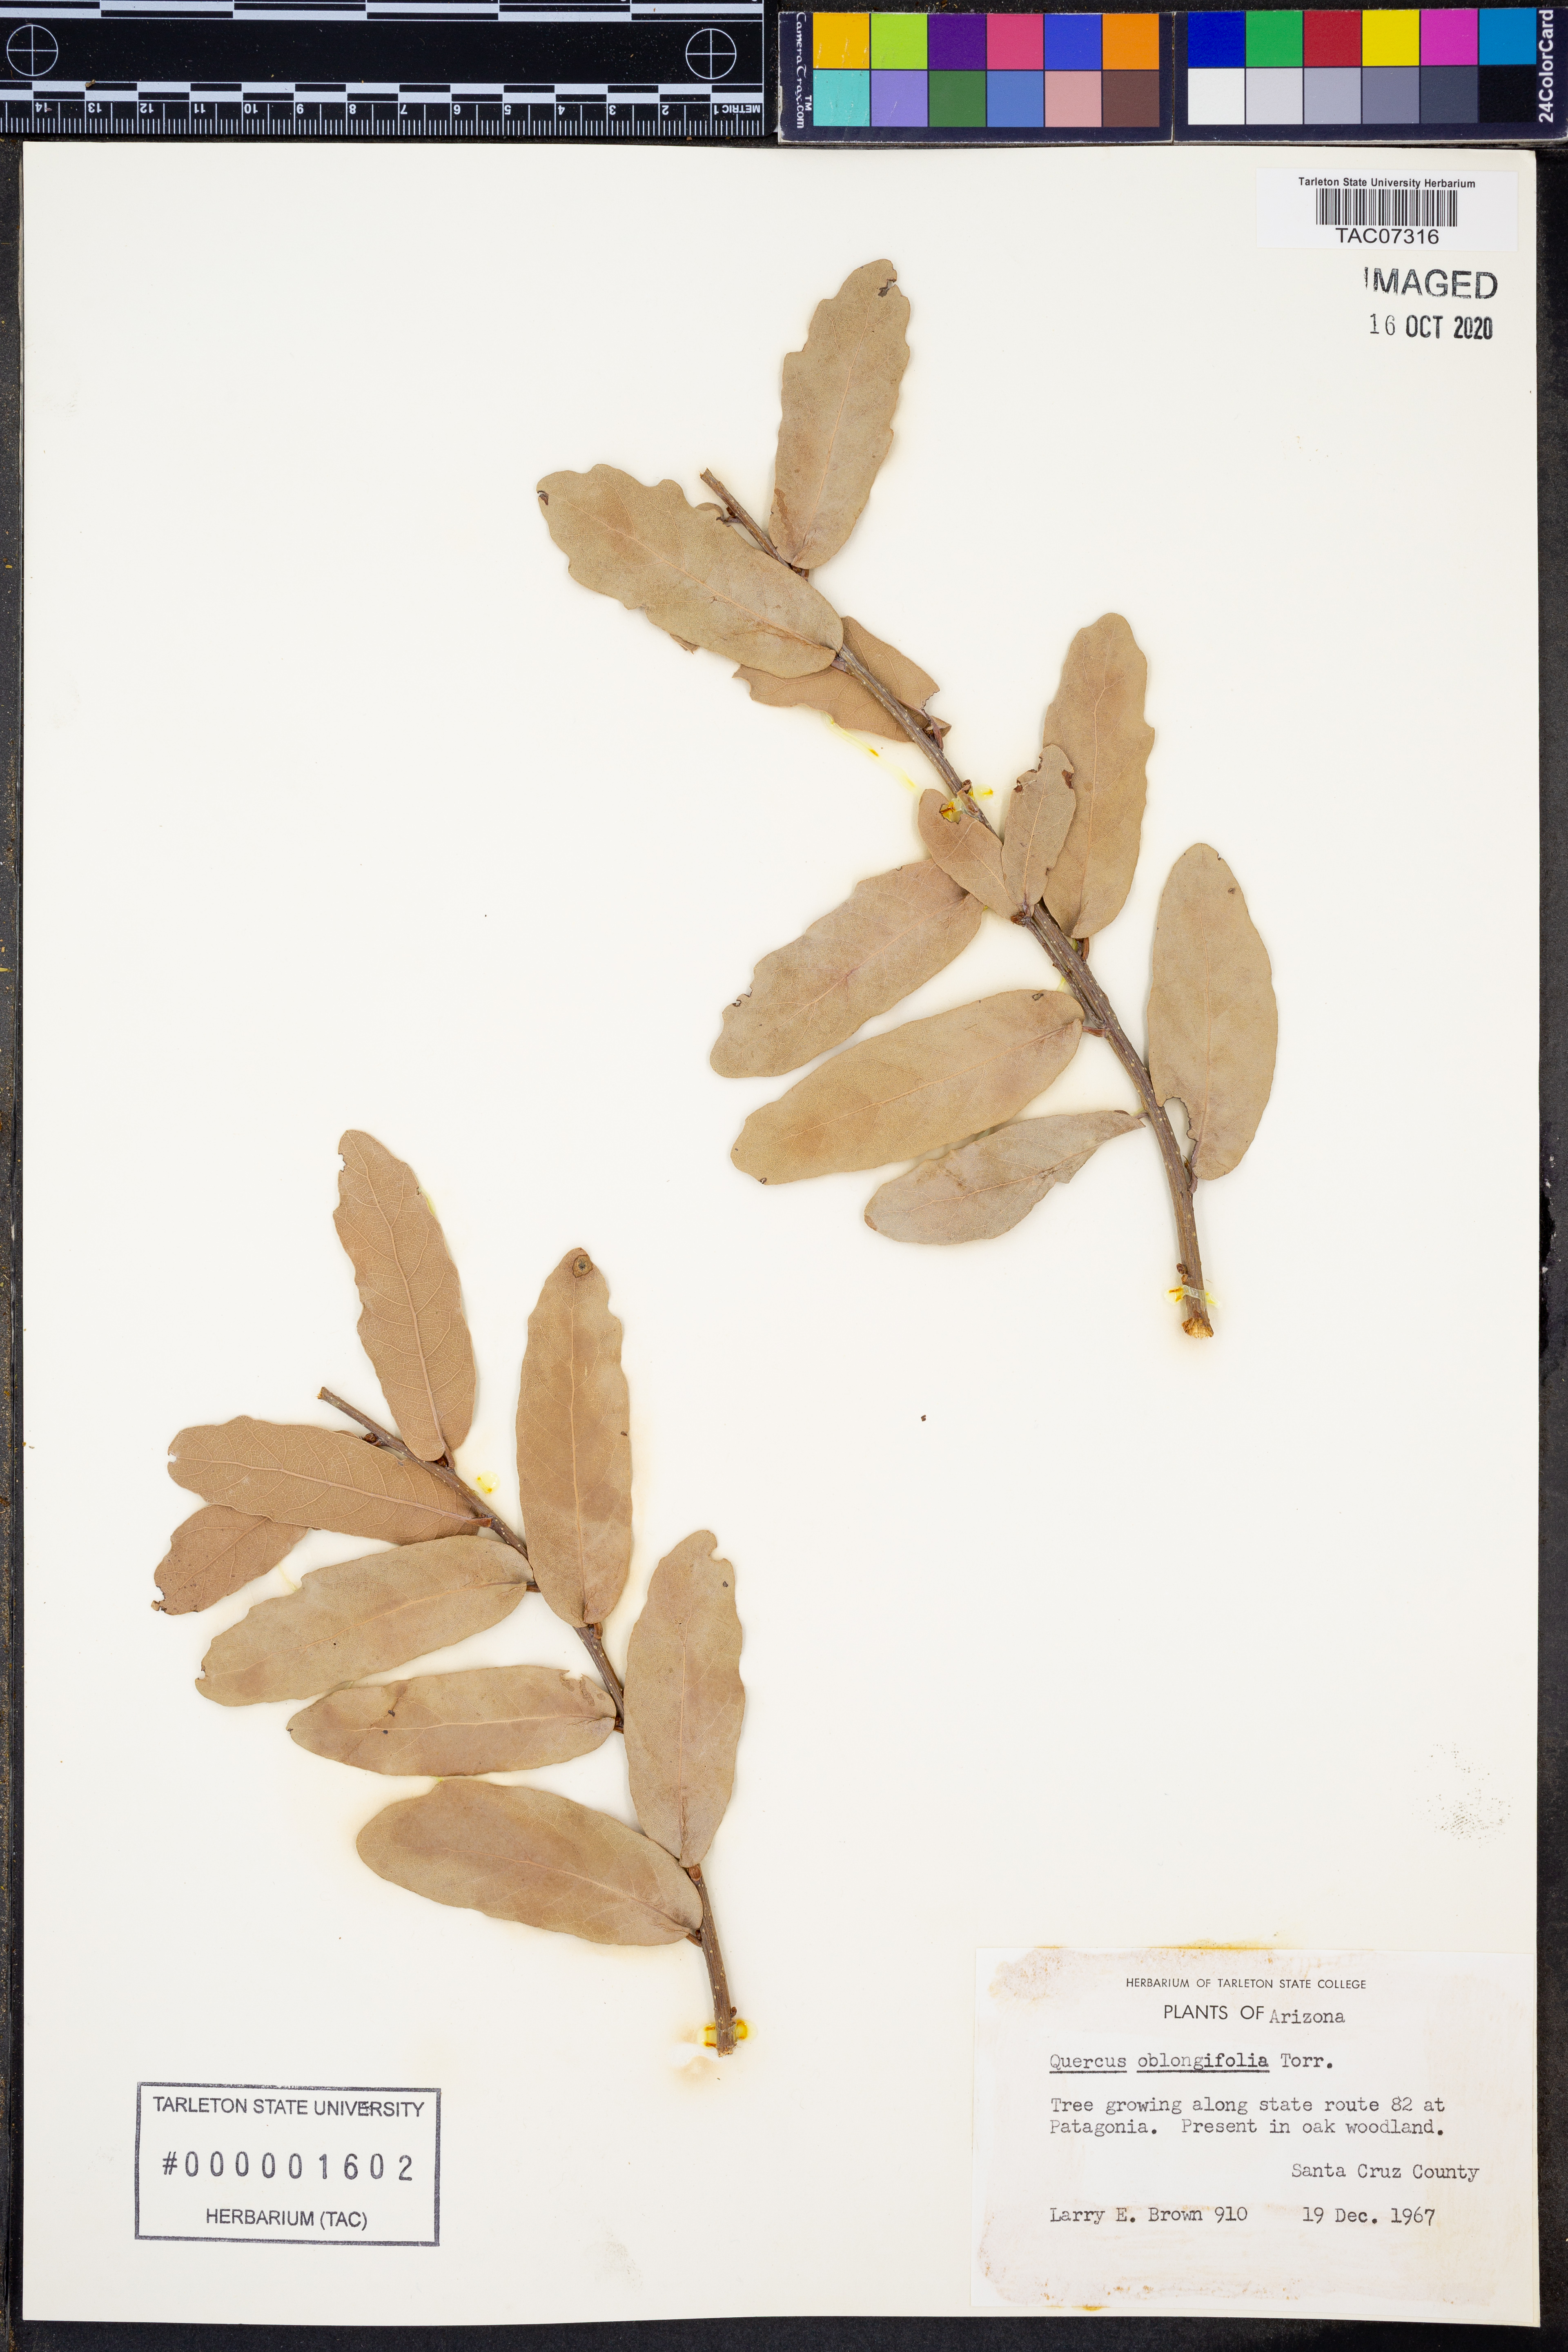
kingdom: Plantae
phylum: Tracheophyta
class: Magnoliopsida
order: Fagales
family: Fagaceae
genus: Quercus
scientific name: Quercus oblongifolia
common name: Mexican blue oak
